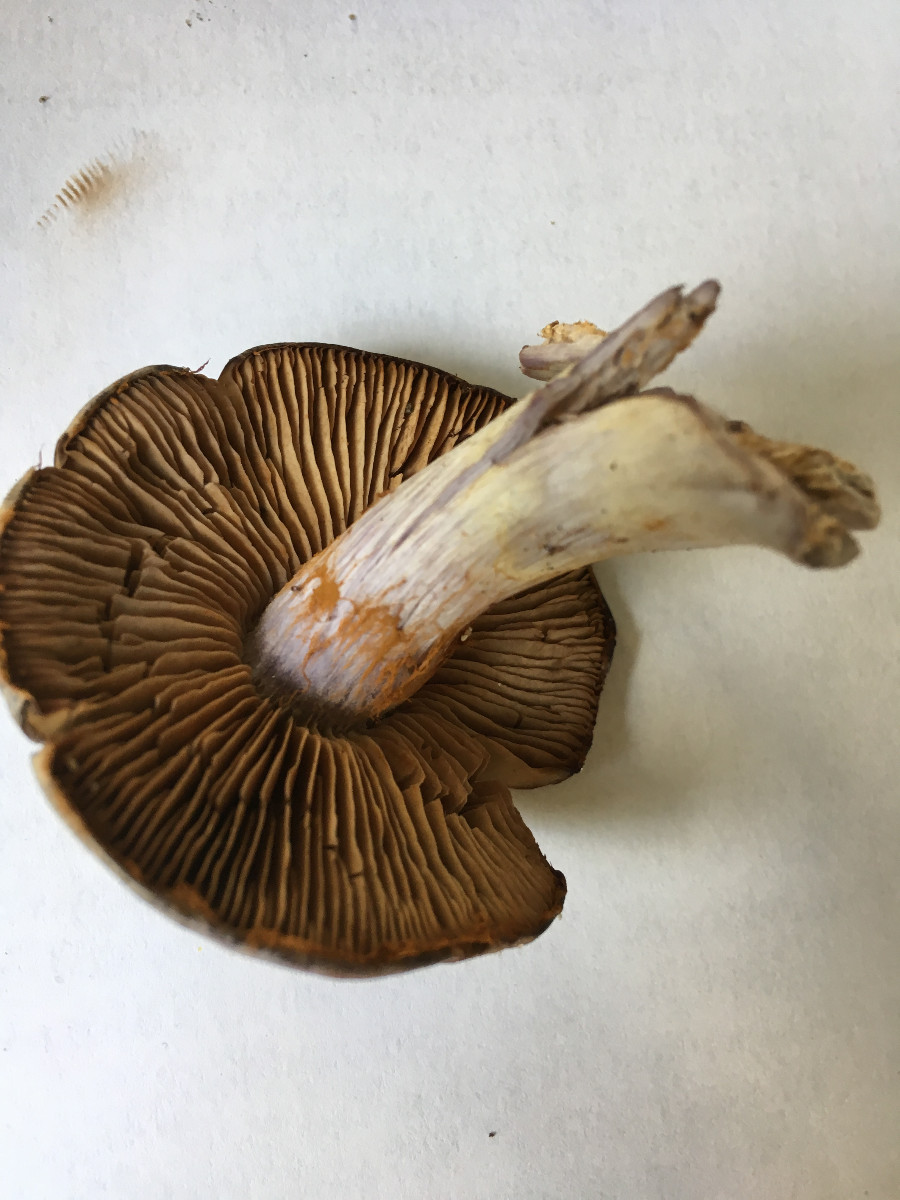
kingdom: Fungi
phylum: Basidiomycota
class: Agaricomycetes
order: Agaricales
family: Cortinariaceae
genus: Cortinarius
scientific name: Cortinarius
